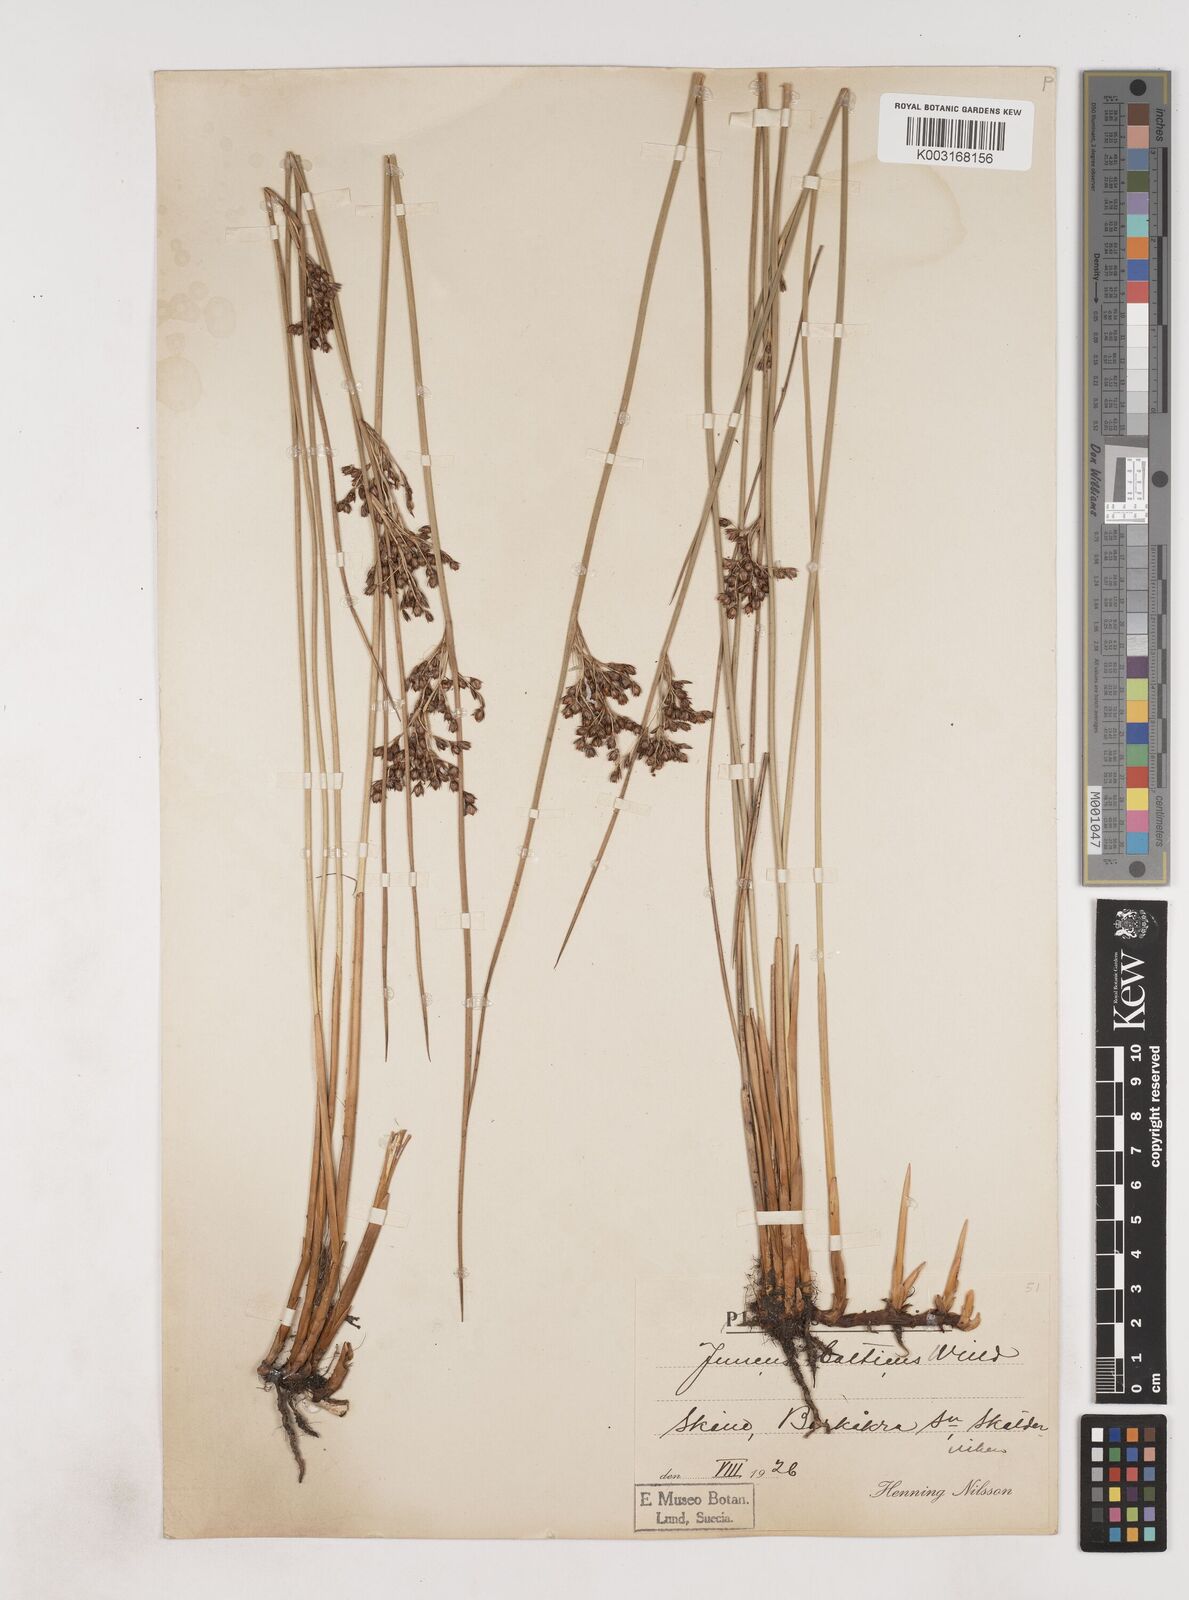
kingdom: Plantae
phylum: Tracheophyta
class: Liliopsida
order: Poales
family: Juncaceae
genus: Juncus
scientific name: Juncus balticus
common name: Baltic rush
